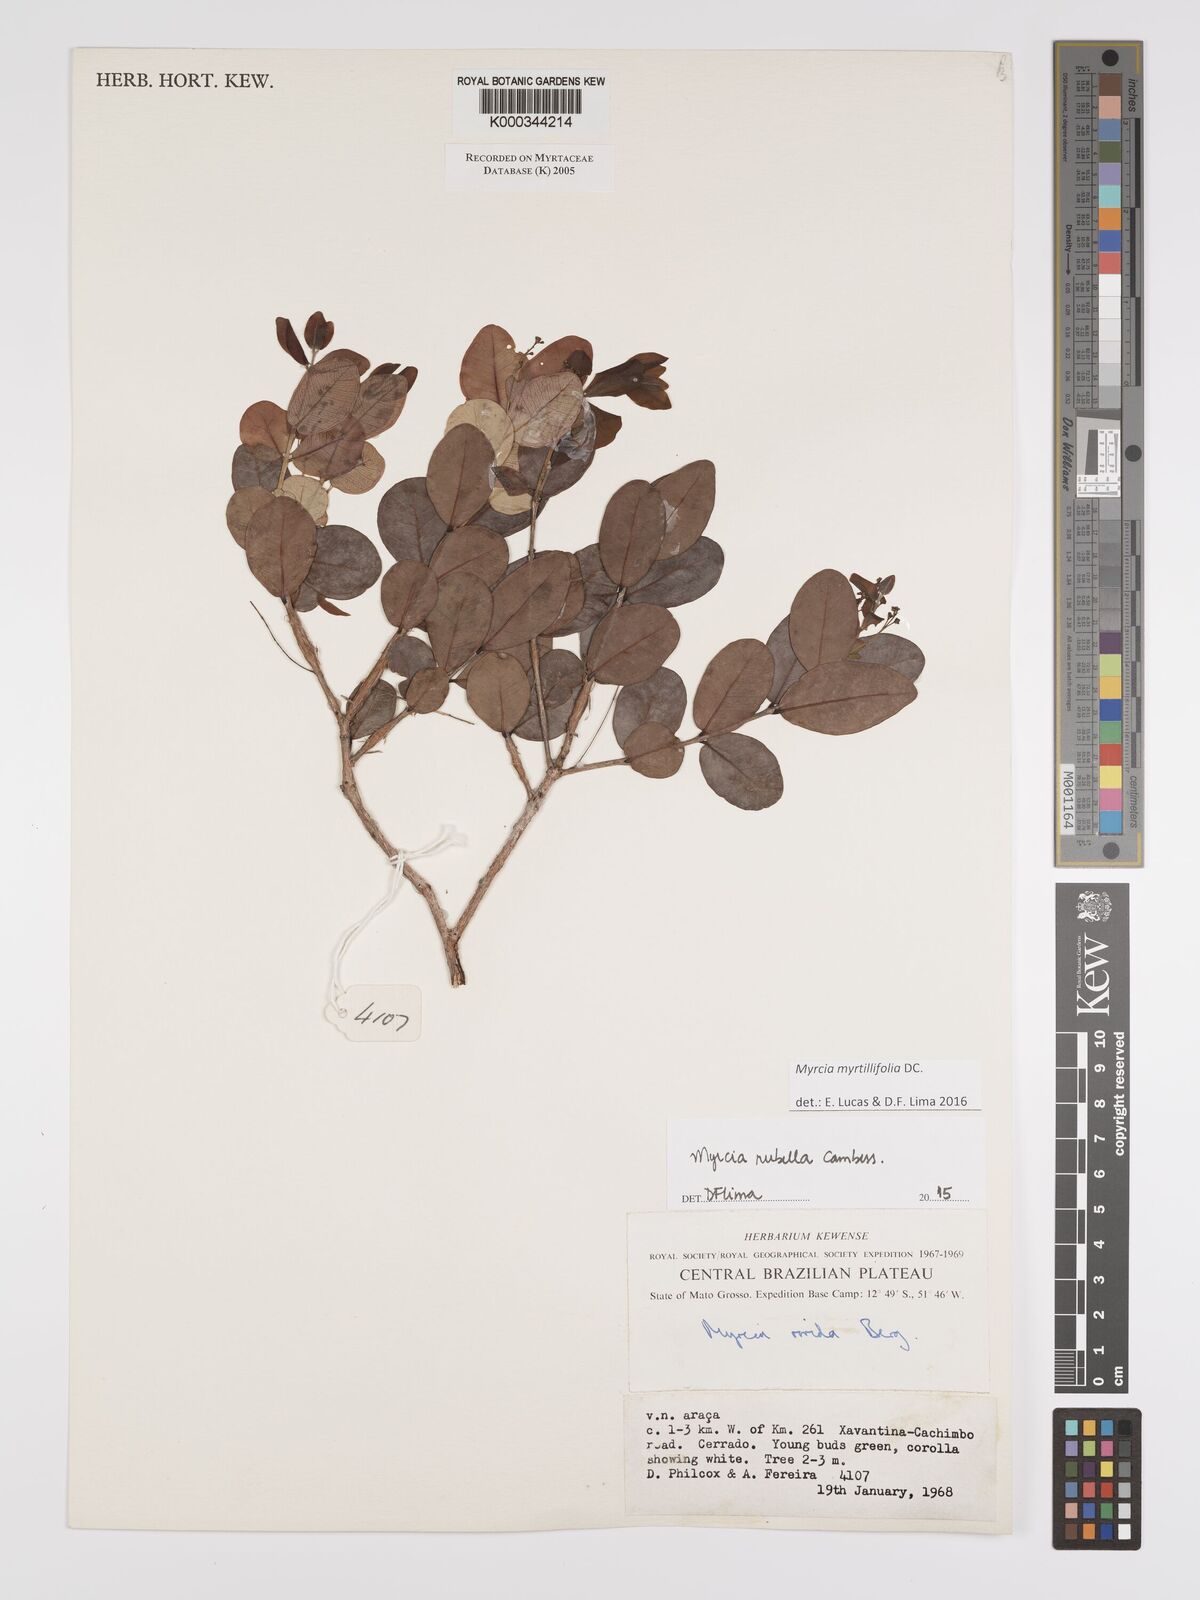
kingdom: Plantae
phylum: Tracheophyta
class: Magnoliopsida
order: Myrtales
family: Myrtaceae
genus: Myrcia
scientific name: Myrcia guianensis
